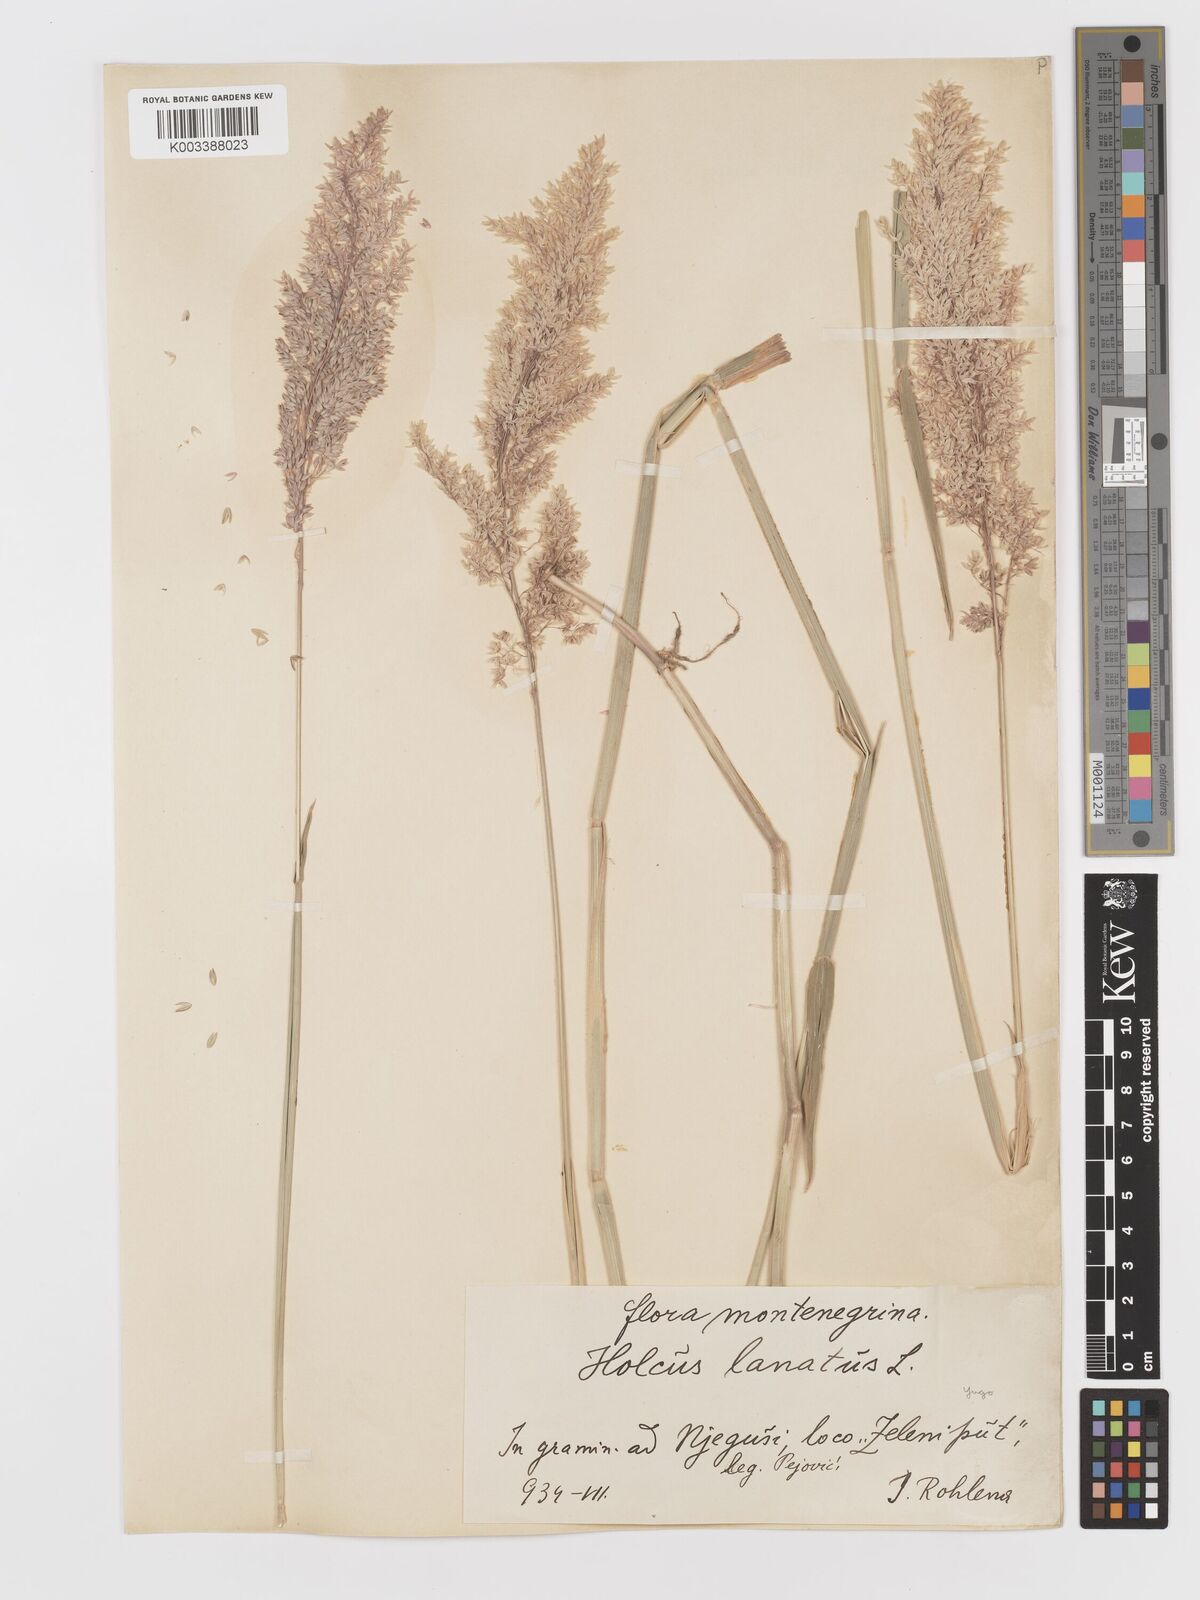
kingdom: Plantae
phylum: Tracheophyta
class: Liliopsida
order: Poales
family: Poaceae
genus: Holcus
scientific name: Holcus lanatus
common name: Yorkshire-fog
